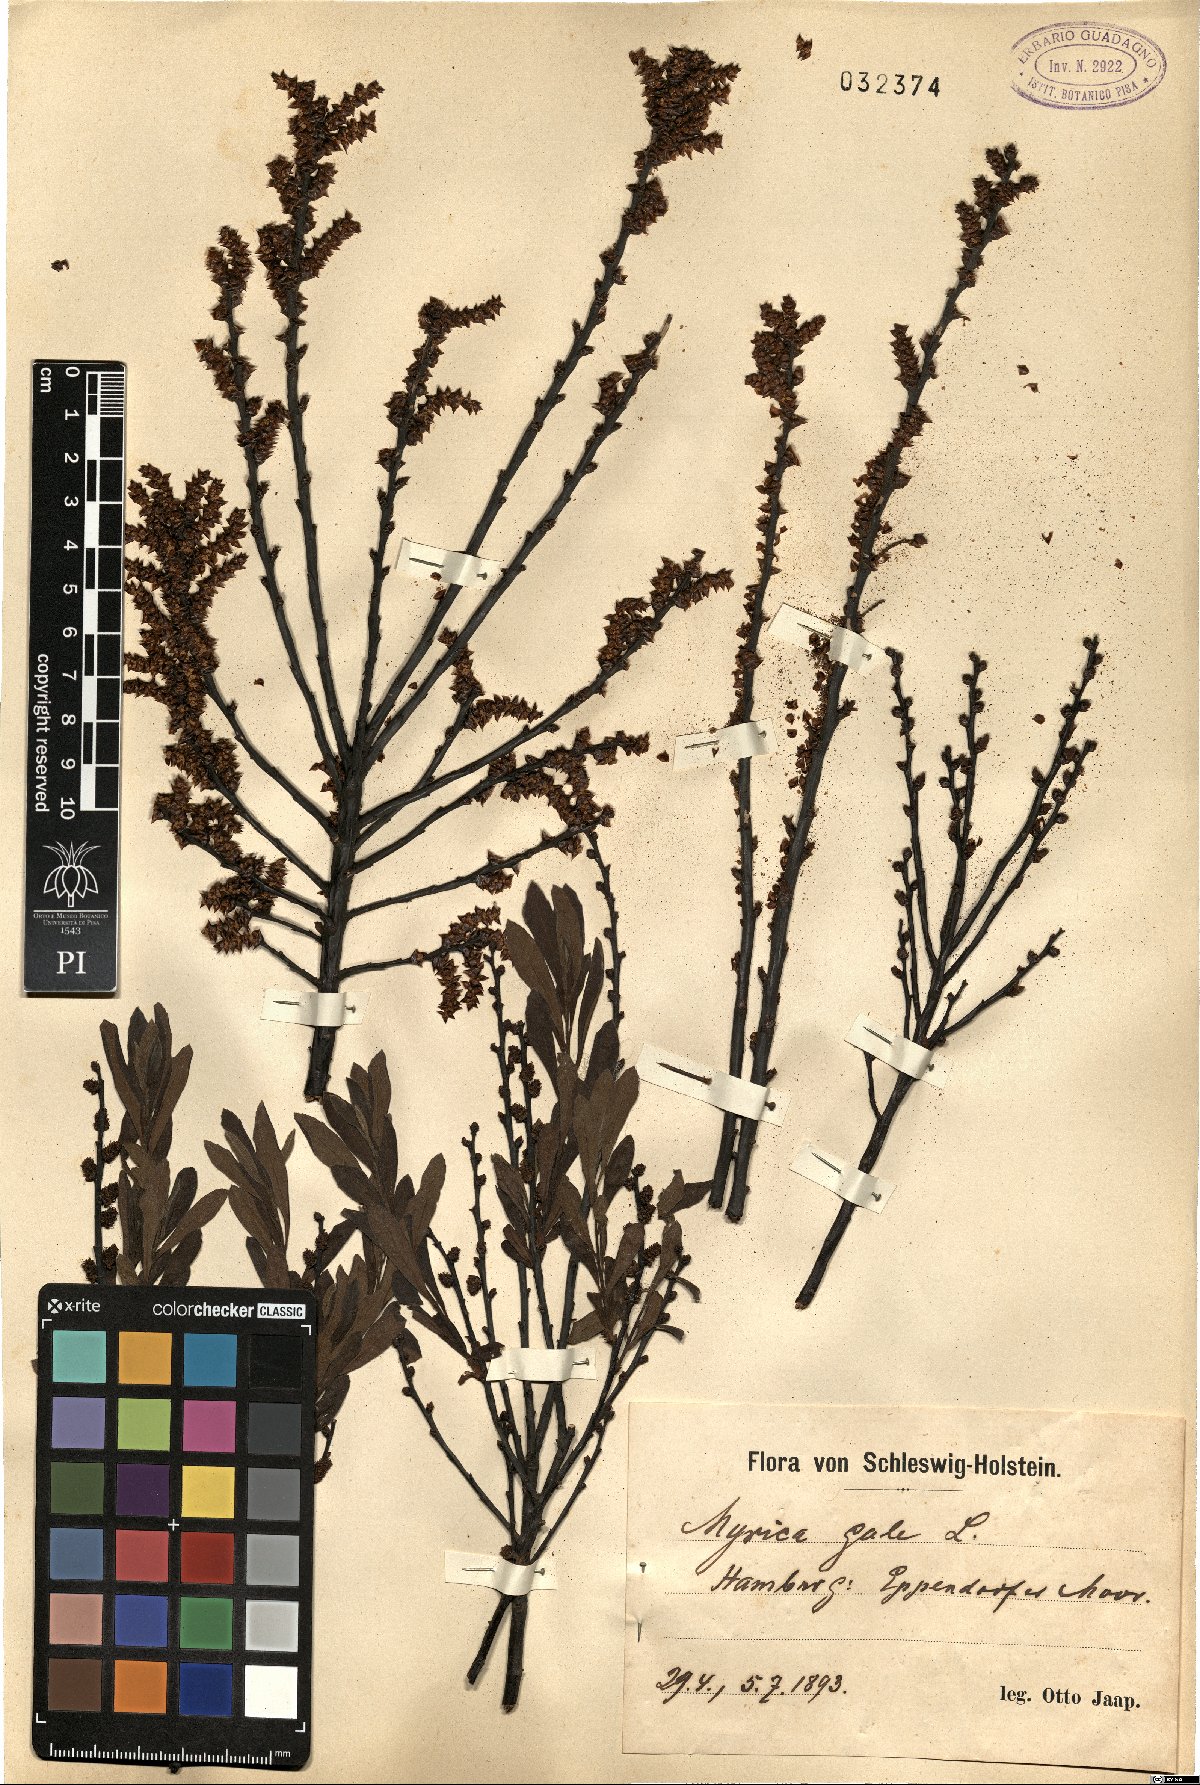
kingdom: Plantae
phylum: Tracheophyta
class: Magnoliopsida
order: Fagales
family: Myricaceae
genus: Myrica
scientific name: Myrica gale
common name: Sweet gale
